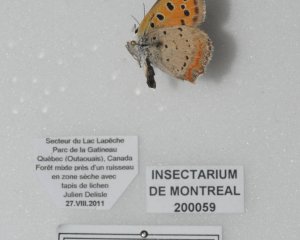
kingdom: Animalia
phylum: Arthropoda
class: Insecta
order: Lepidoptera
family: Lycaenidae
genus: Lycaena
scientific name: Lycaena phlaeas
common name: American Copper
